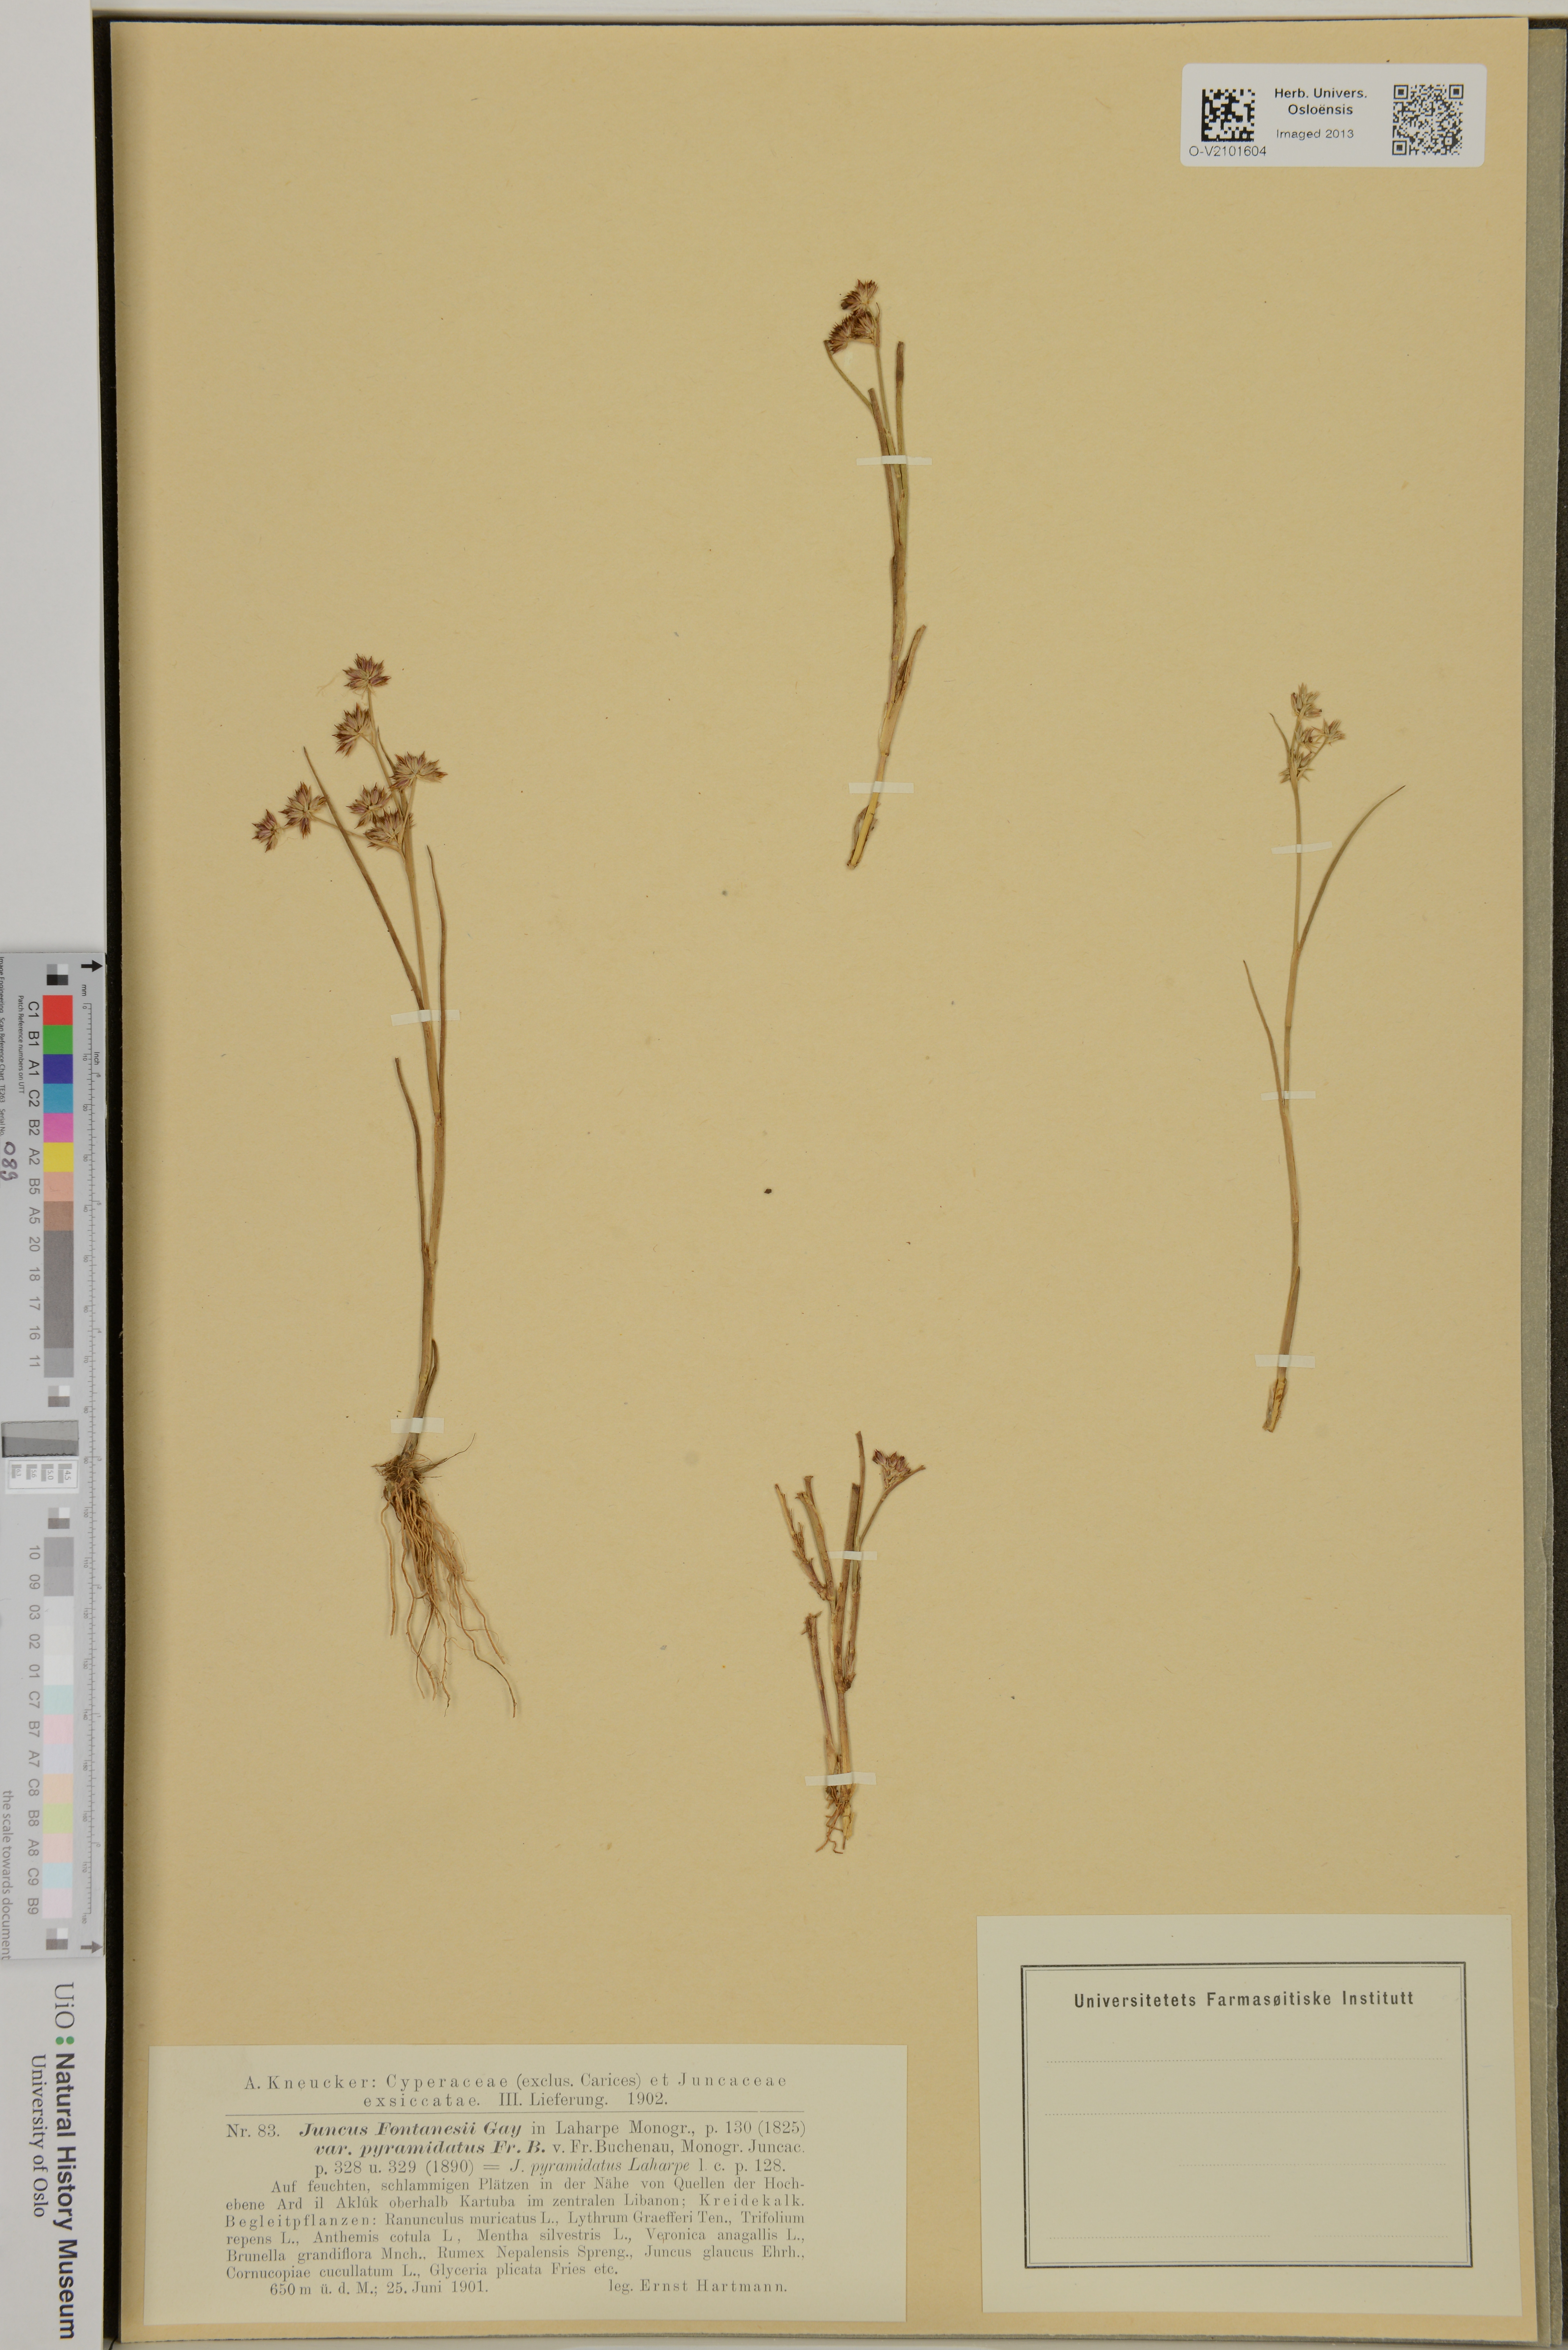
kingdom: Plantae
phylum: Tracheophyta
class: Liliopsida
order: Poales
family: Juncaceae
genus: Juncus
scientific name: Juncus fontanesii
